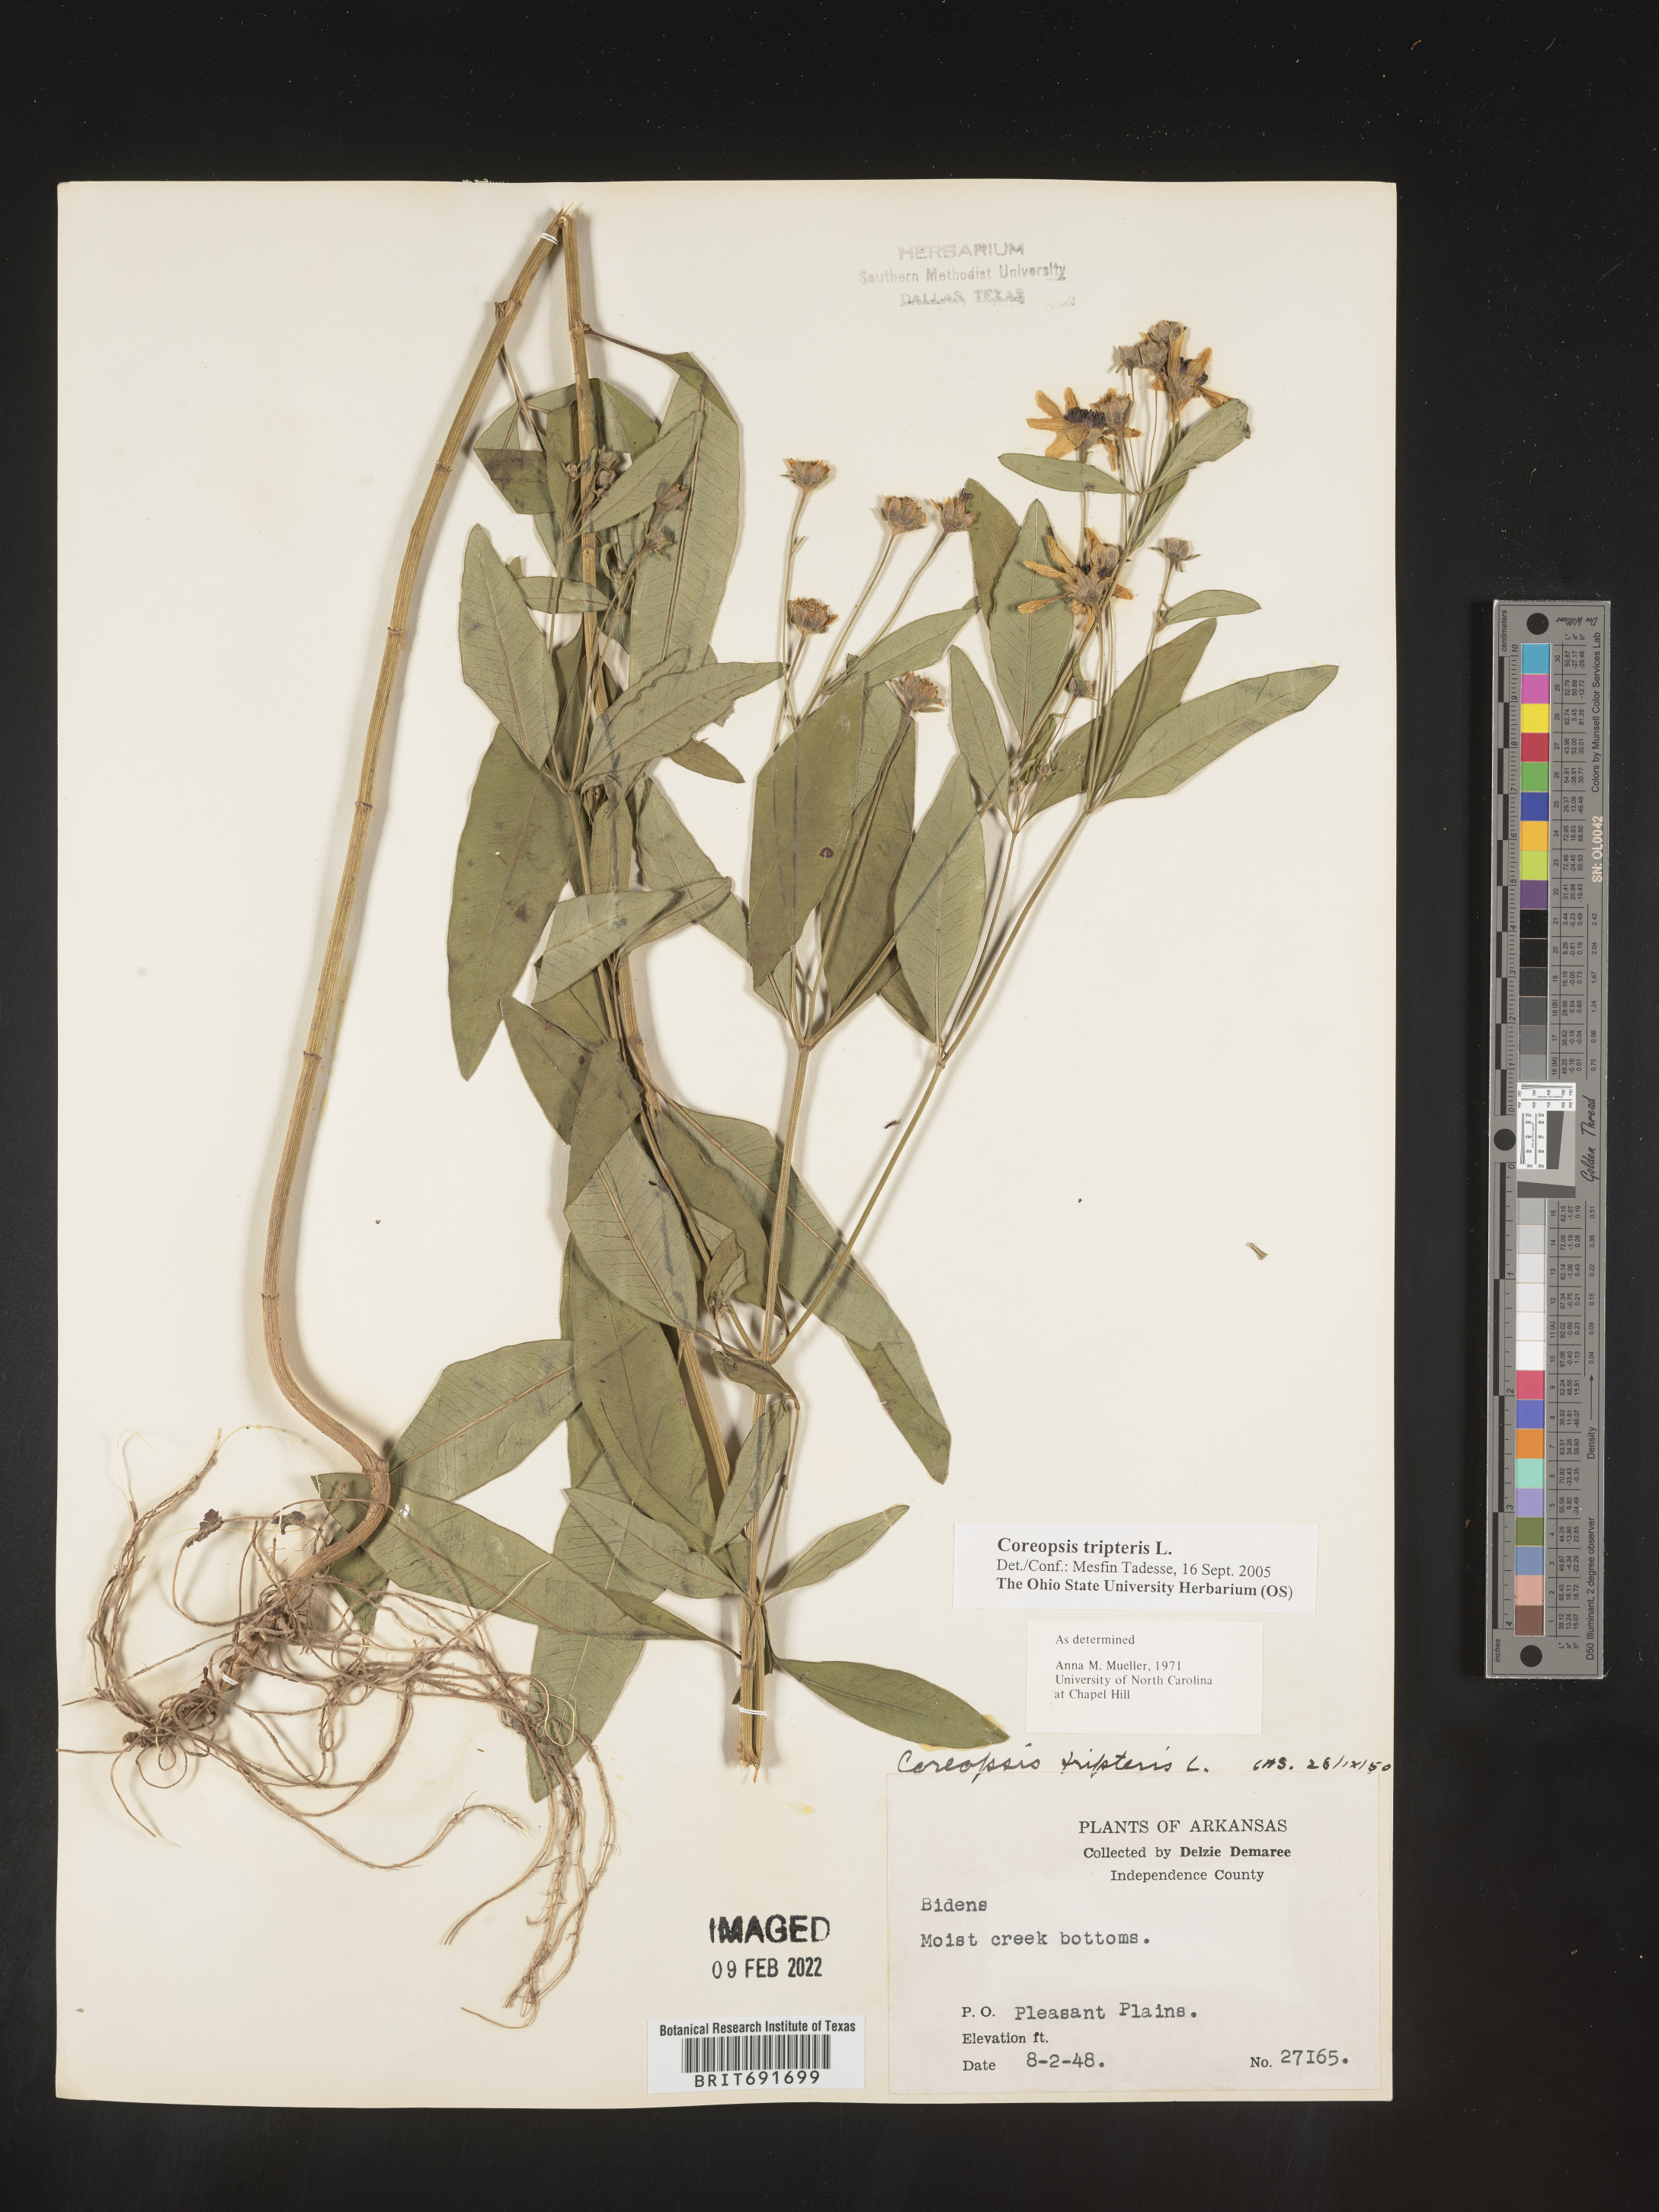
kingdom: Plantae
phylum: Tracheophyta
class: Magnoliopsida
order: Asterales
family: Asteraceae
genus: Coreopsis
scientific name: Coreopsis tripteris
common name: Tall coreopsis
